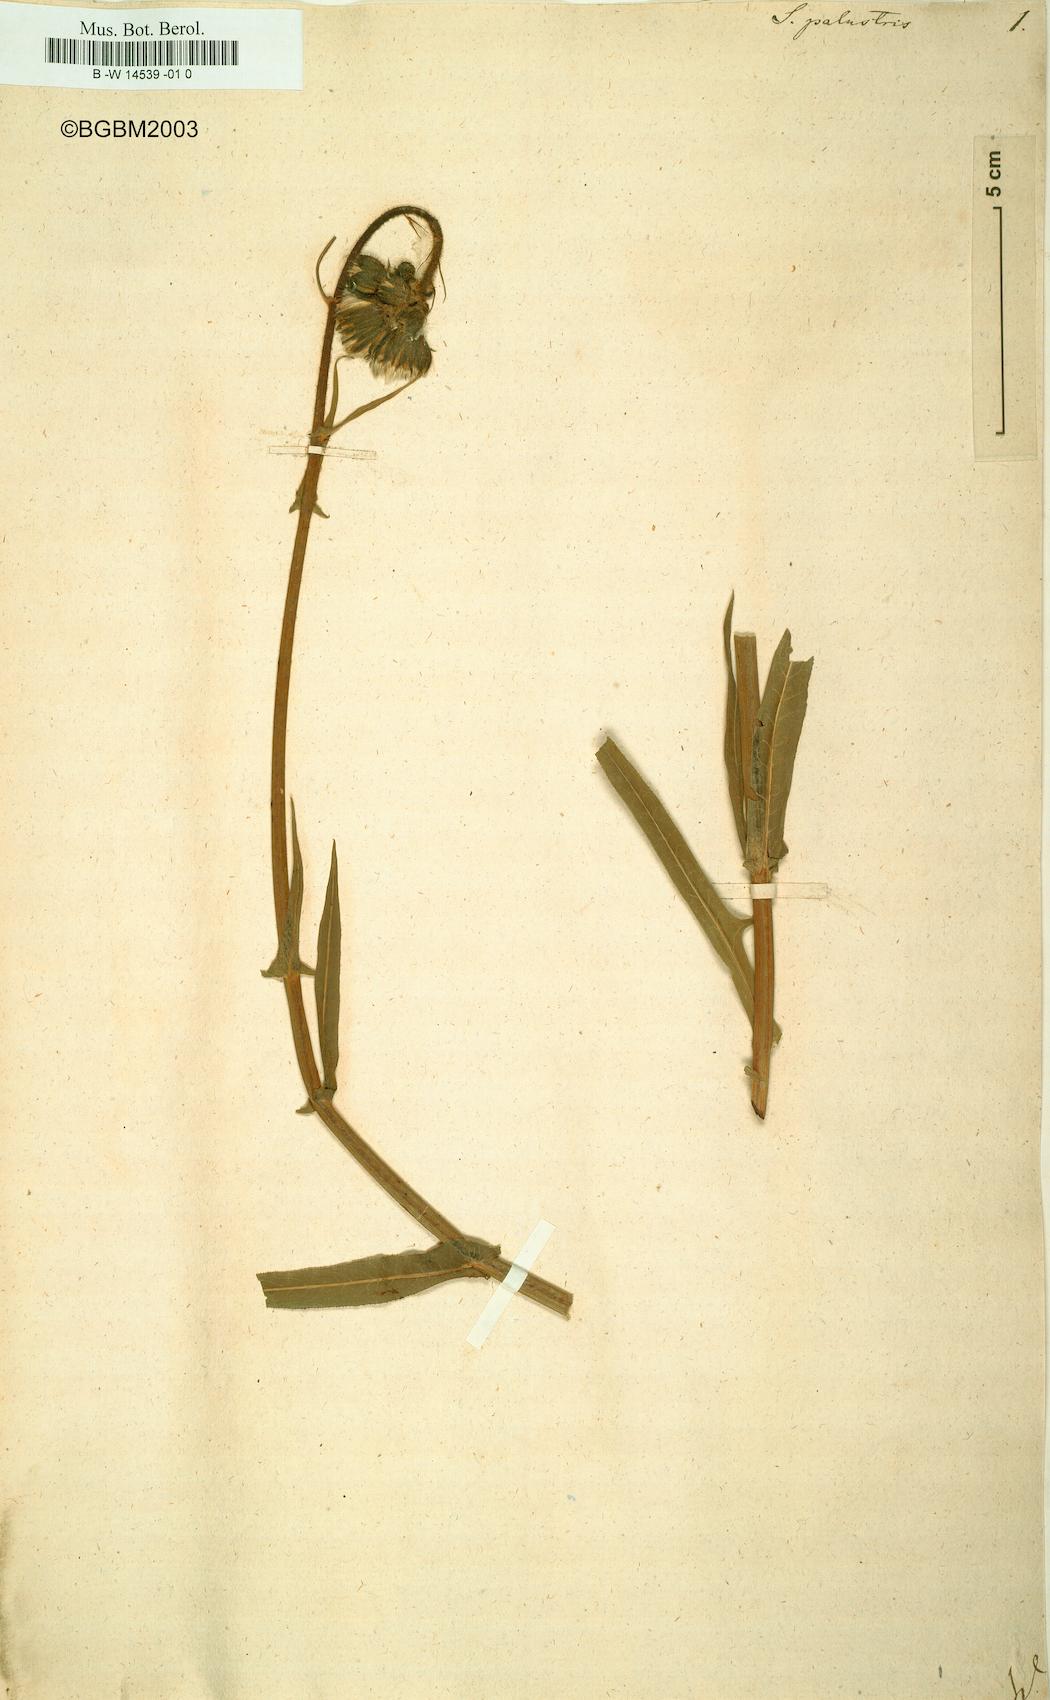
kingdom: Plantae
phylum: Tracheophyta
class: Magnoliopsida
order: Asterales
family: Asteraceae
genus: Sonchus
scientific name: Sonchus palustris
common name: Marsh sow-thistle
